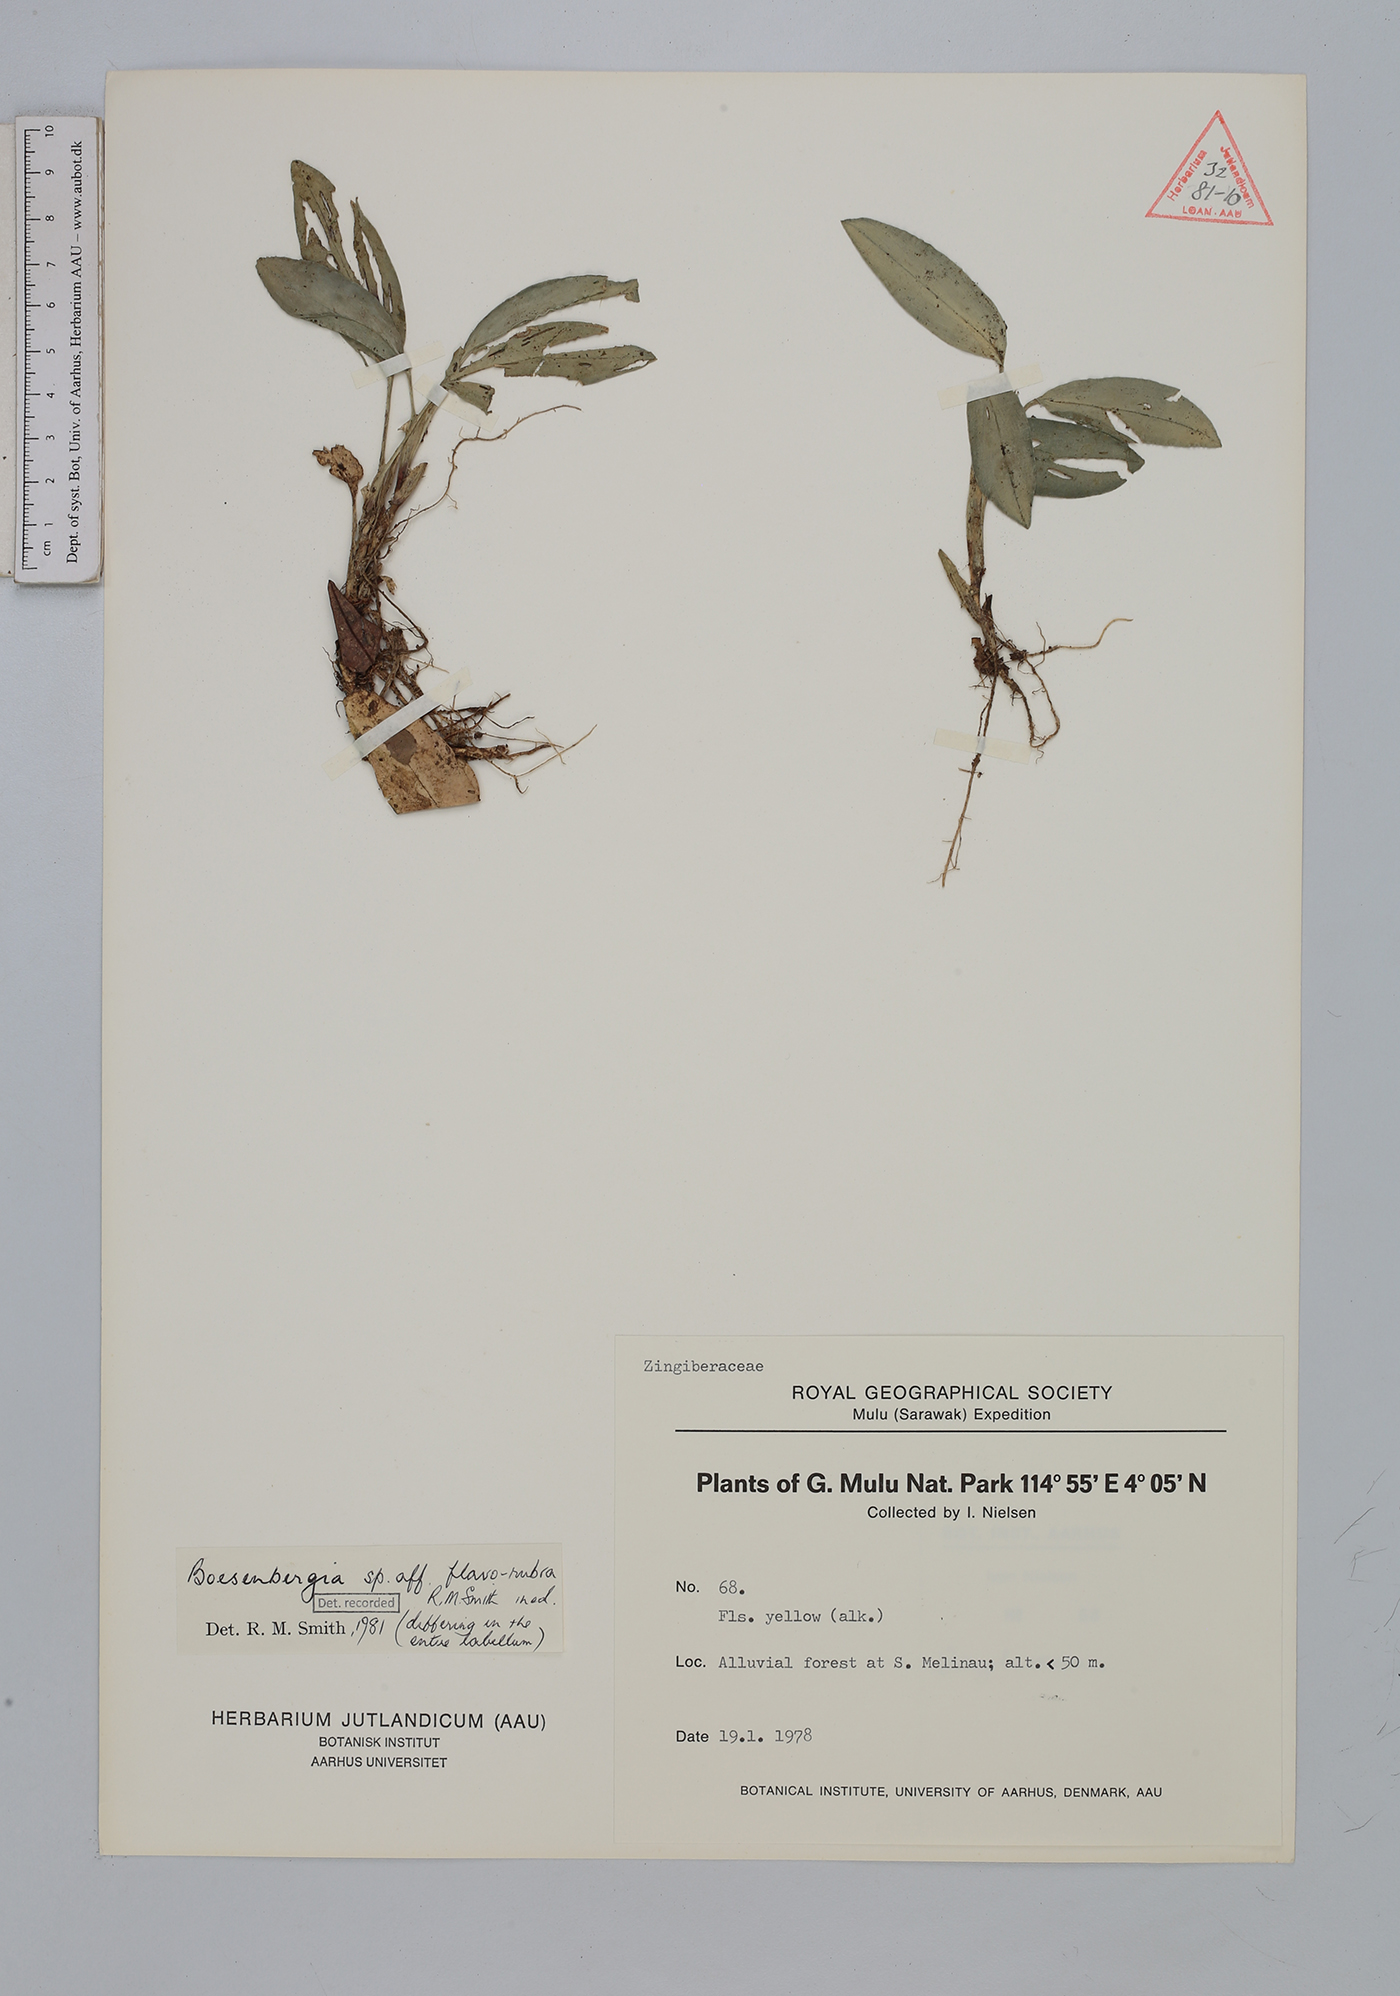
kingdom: Plantae
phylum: Tracheophyta
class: Liliopsida
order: Zingiberales
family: Zingiberaceae
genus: Boesenbergia
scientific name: Boesenbergia flavorubra
